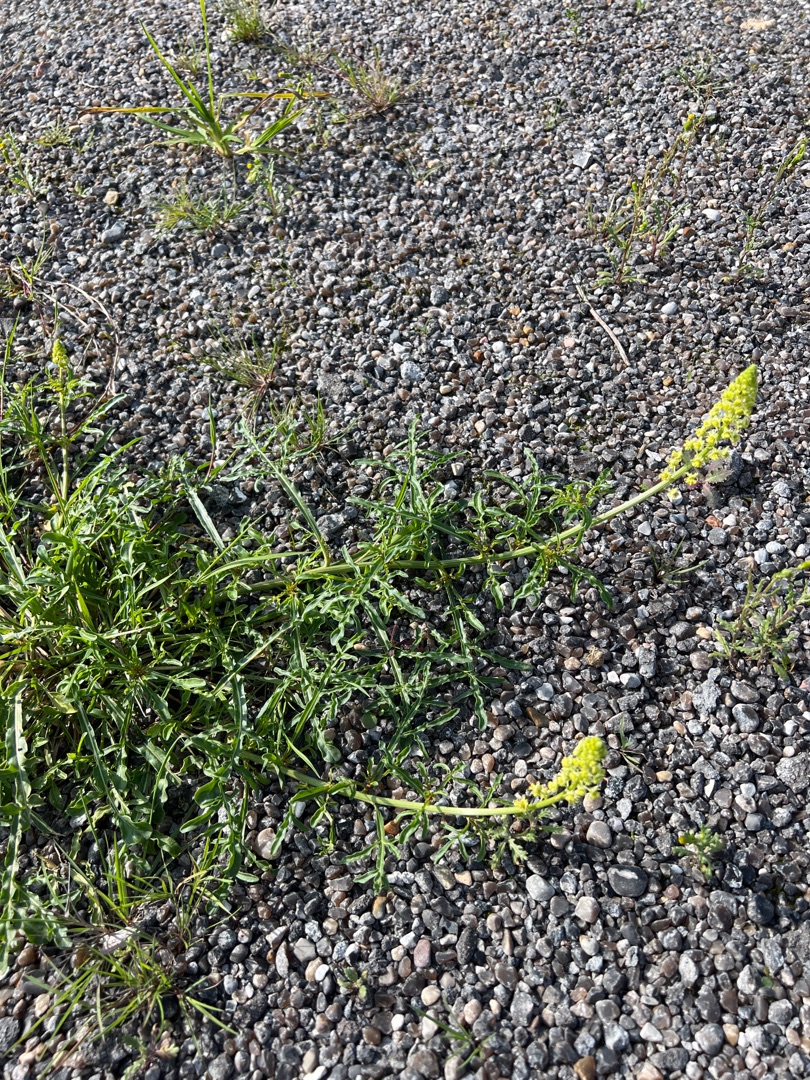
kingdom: Plantae
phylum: Tracheophyta
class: Magnoliopsida
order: Brassicales
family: Resedaceae
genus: Reseda
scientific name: Reseda lutea
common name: Gul reseda
